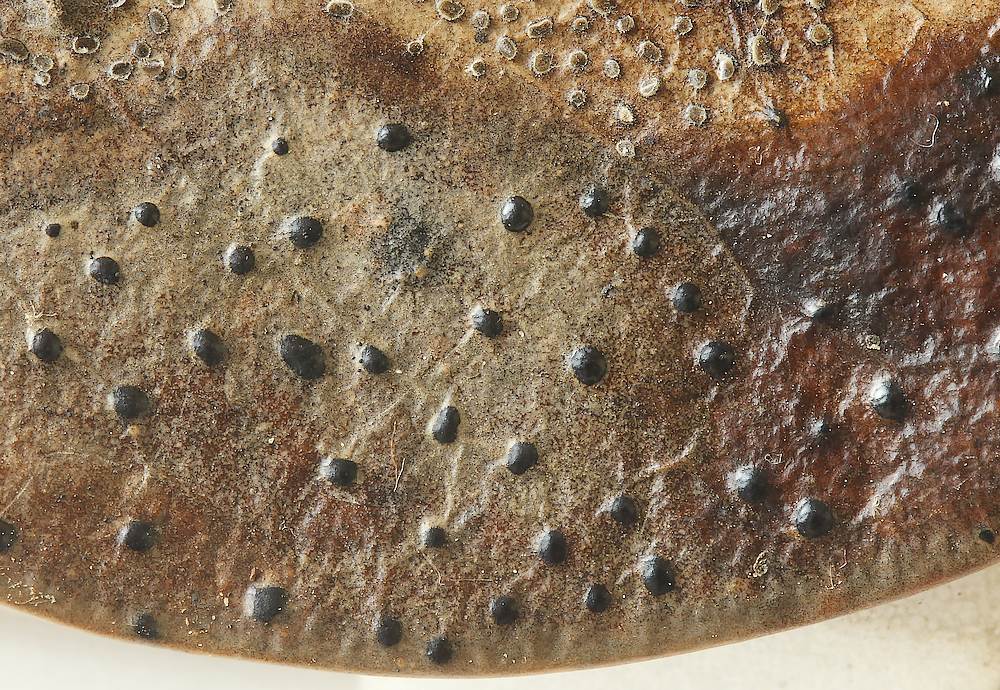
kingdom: Fungi
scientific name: Fungi
